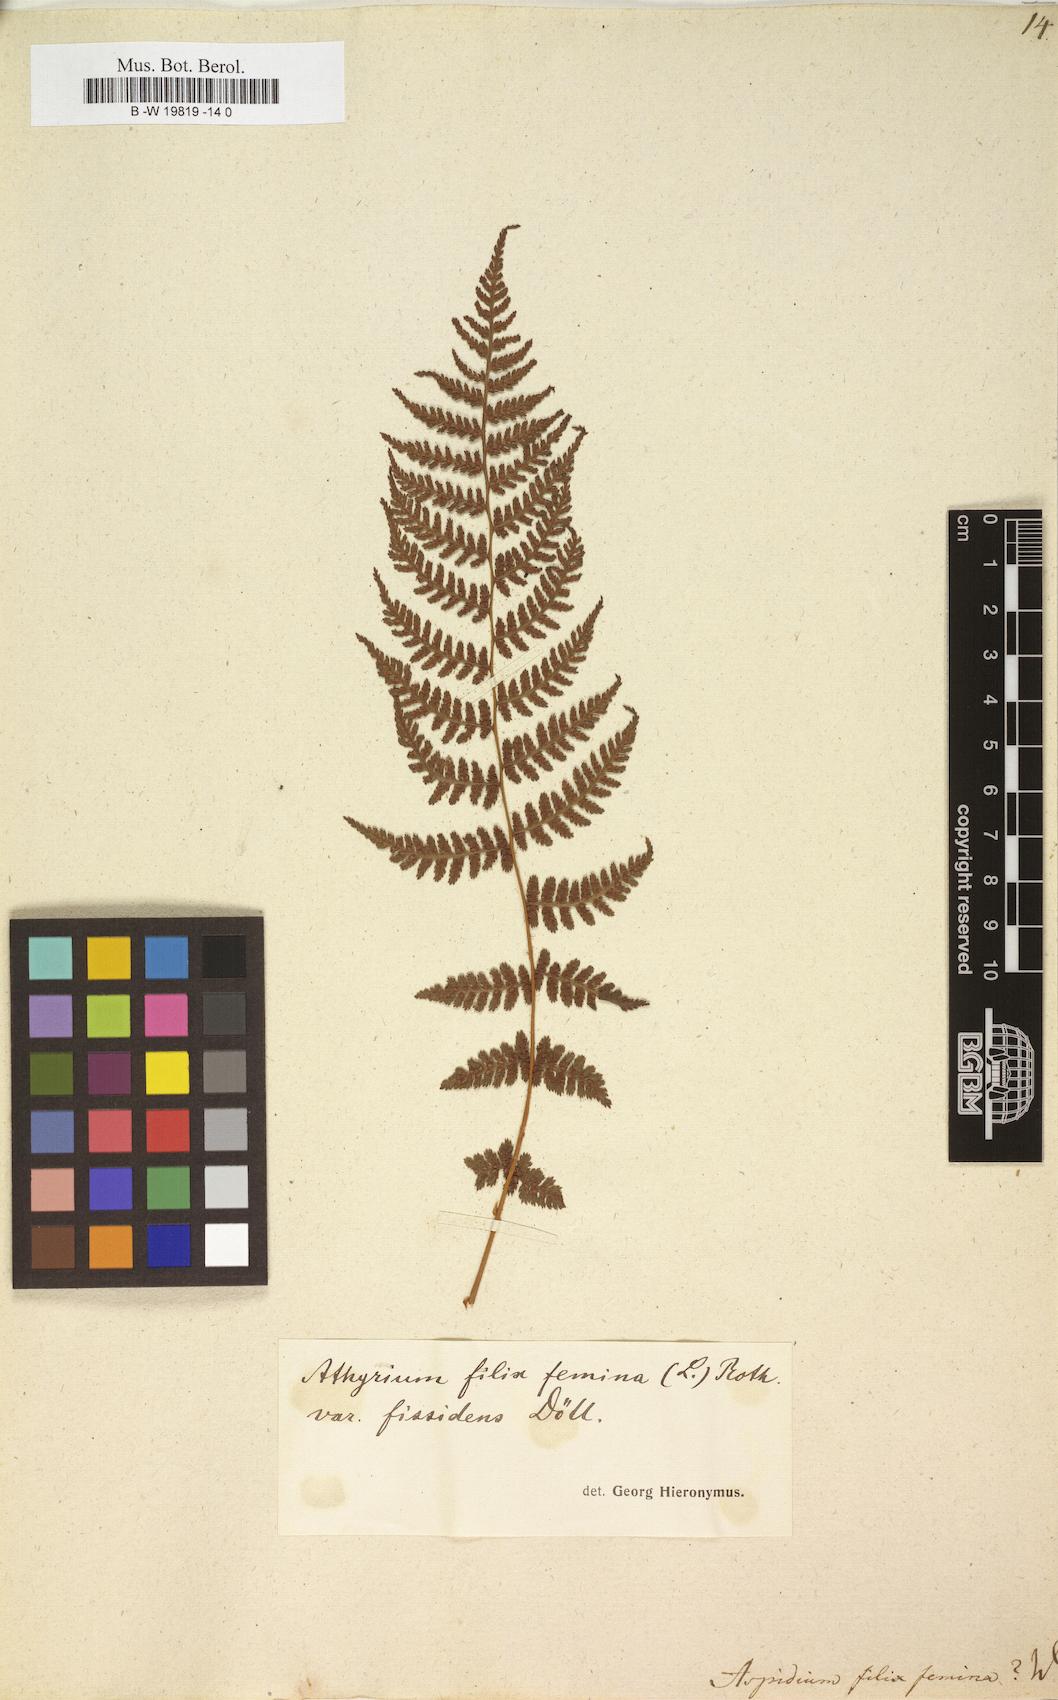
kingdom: Plantae
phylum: Tracheophyta
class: Polypodiopsida
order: Polypodiales
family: Athyriaceae
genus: Athyrium
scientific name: Athyrium filix-femina
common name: Lady fern
